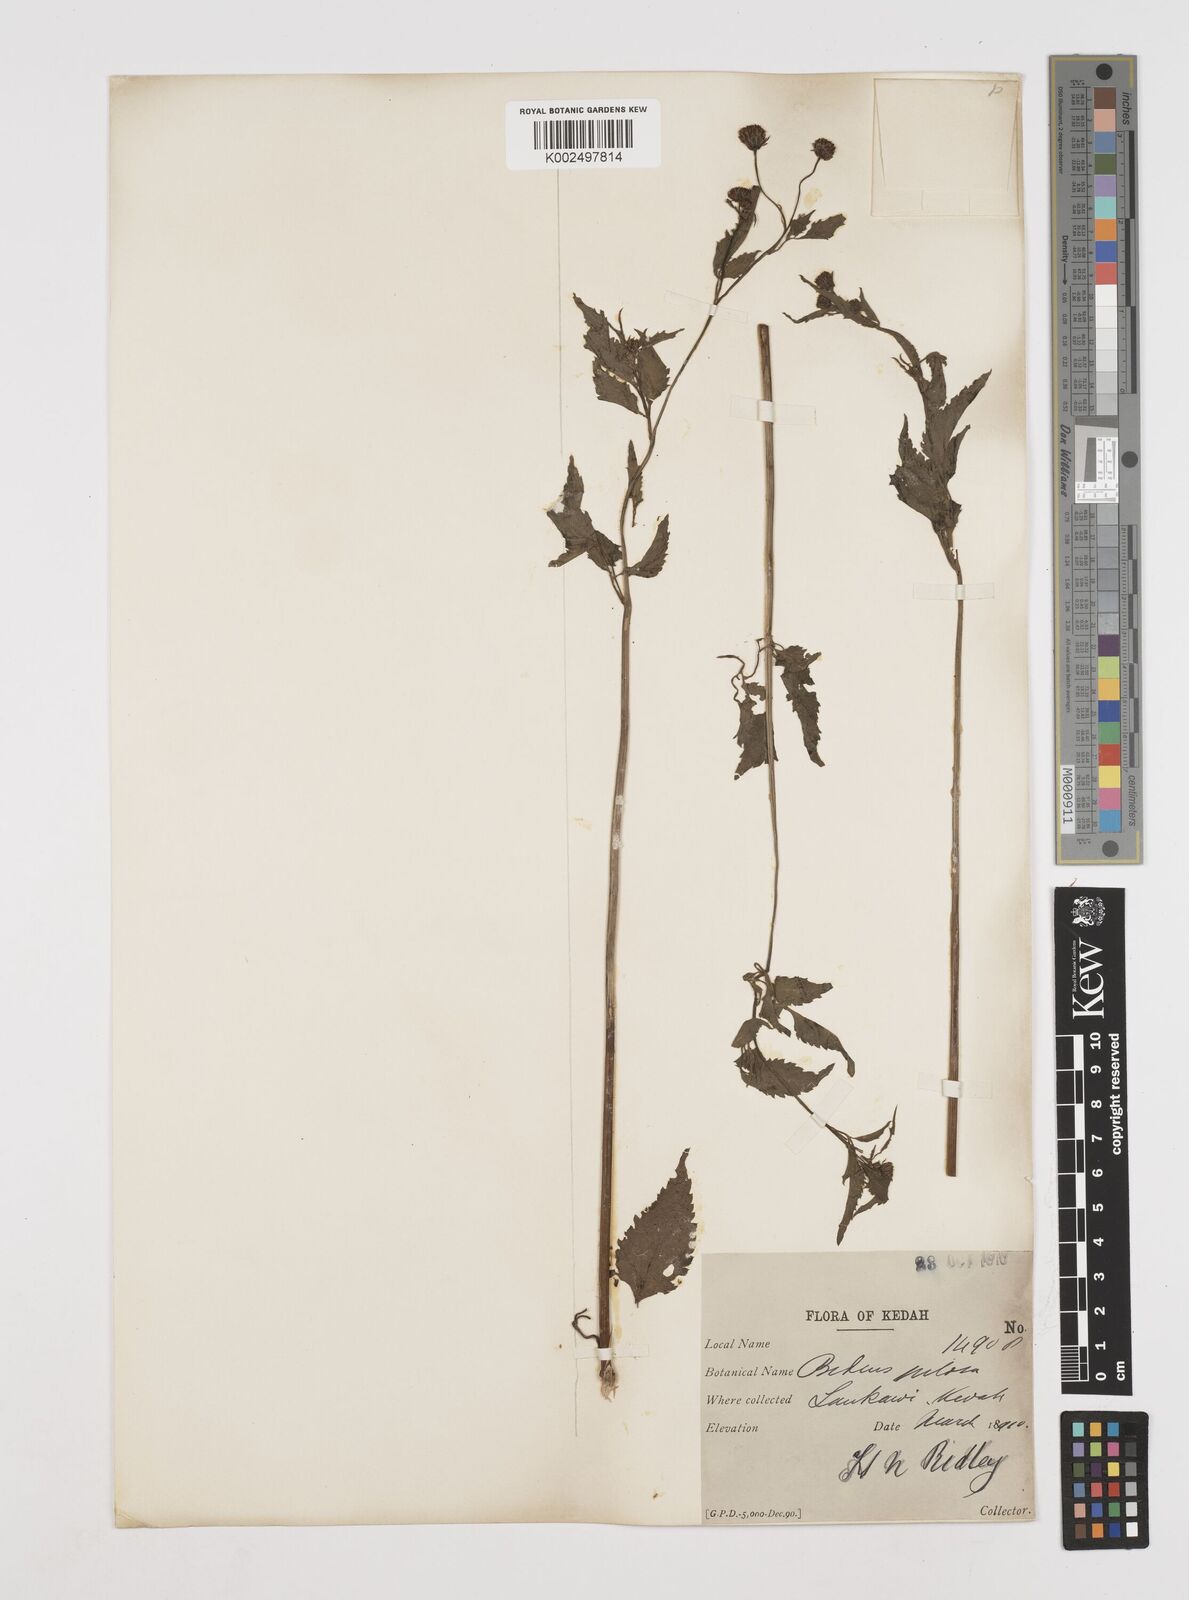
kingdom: Plantae
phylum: Tracheophyta
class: Magnoliopsida
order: Asterales
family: Asteraceae
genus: Bidens
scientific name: Bidens pilosa
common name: Black-jack
